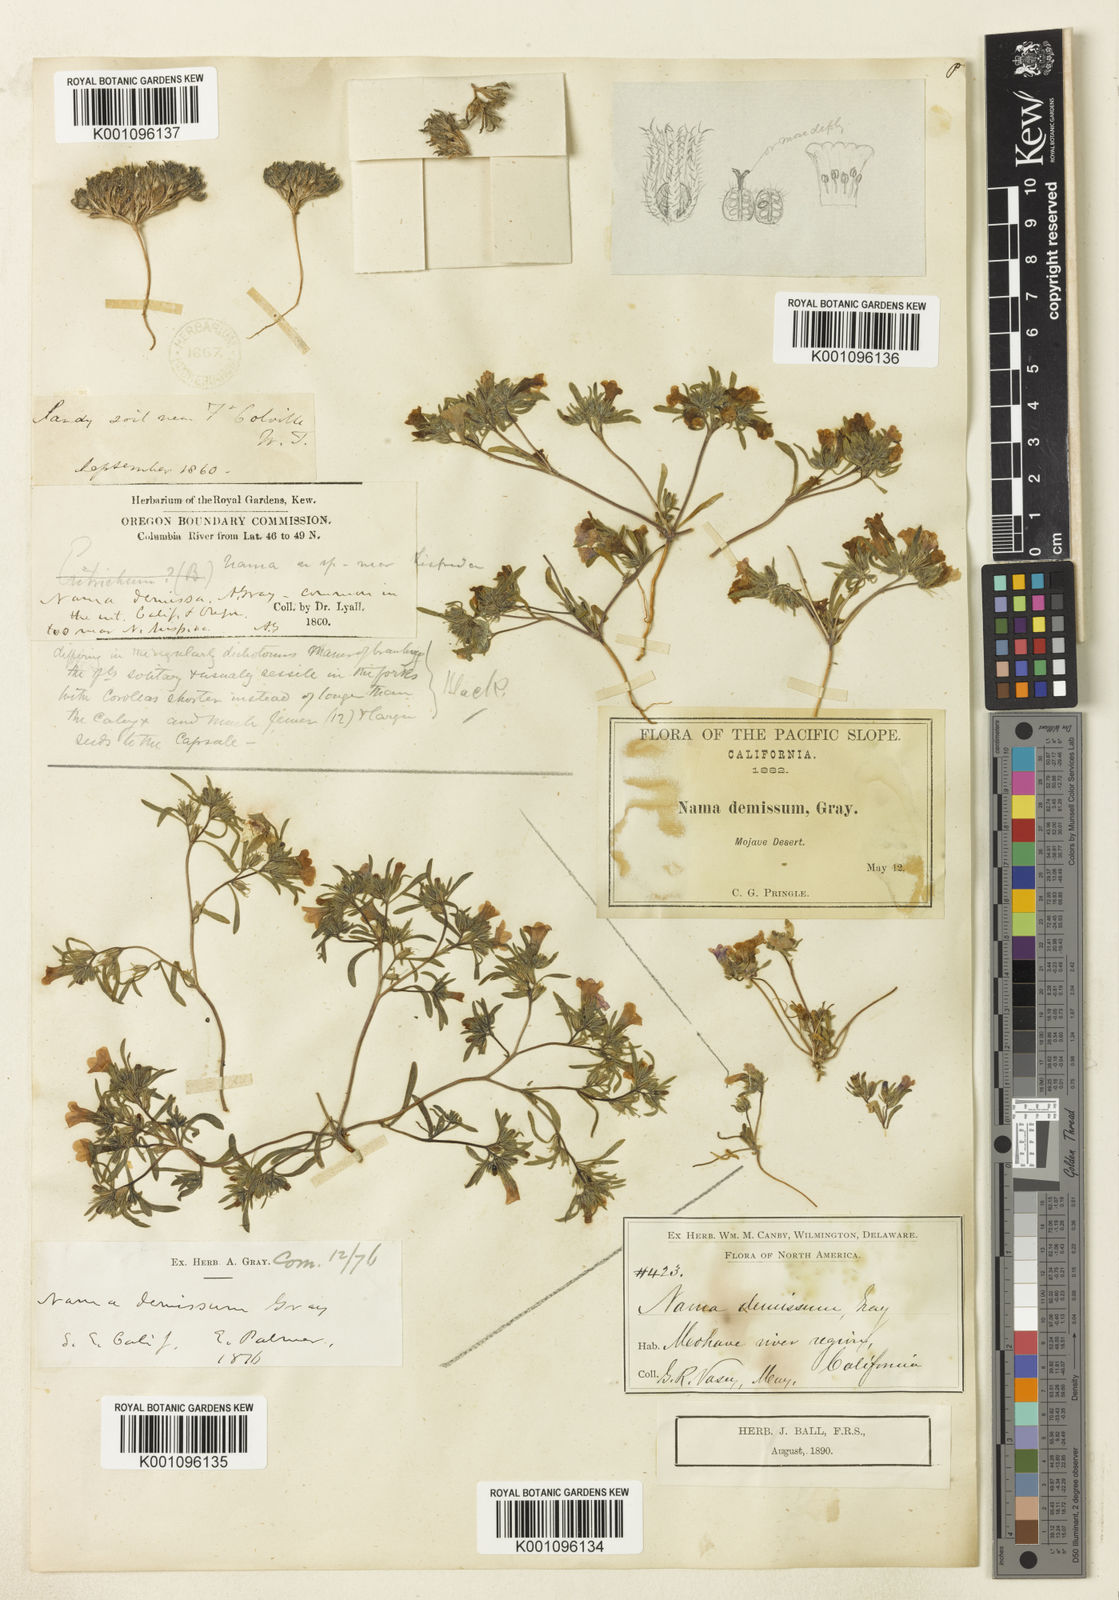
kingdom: Plantae
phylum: Tracheophyta
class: Magnoliopsida
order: Boraginales
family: Namaceae
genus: Nama
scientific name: Nama demissa
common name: Leafy nama
